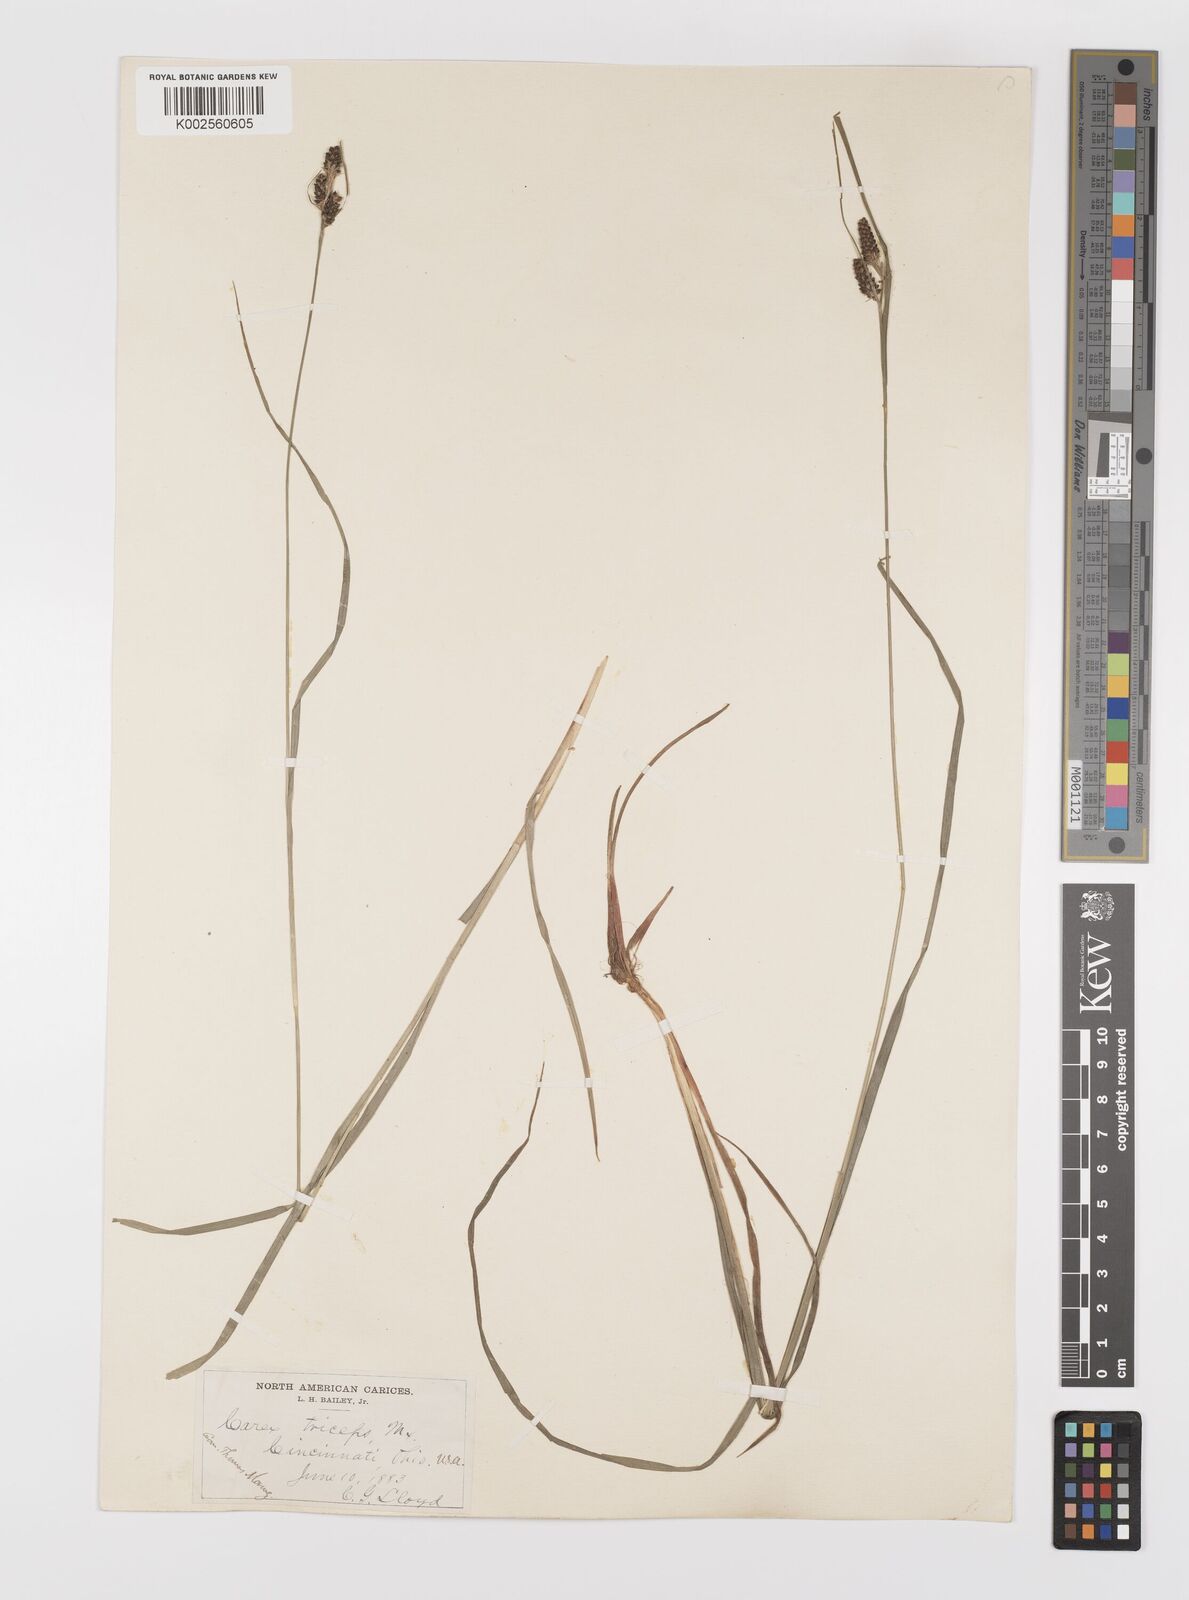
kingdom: Plantae
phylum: Tracheophyta
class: Liliopsida
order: Poales
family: Cyperaceae
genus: Carex
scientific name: Carex complanata
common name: Hirsute sedge
